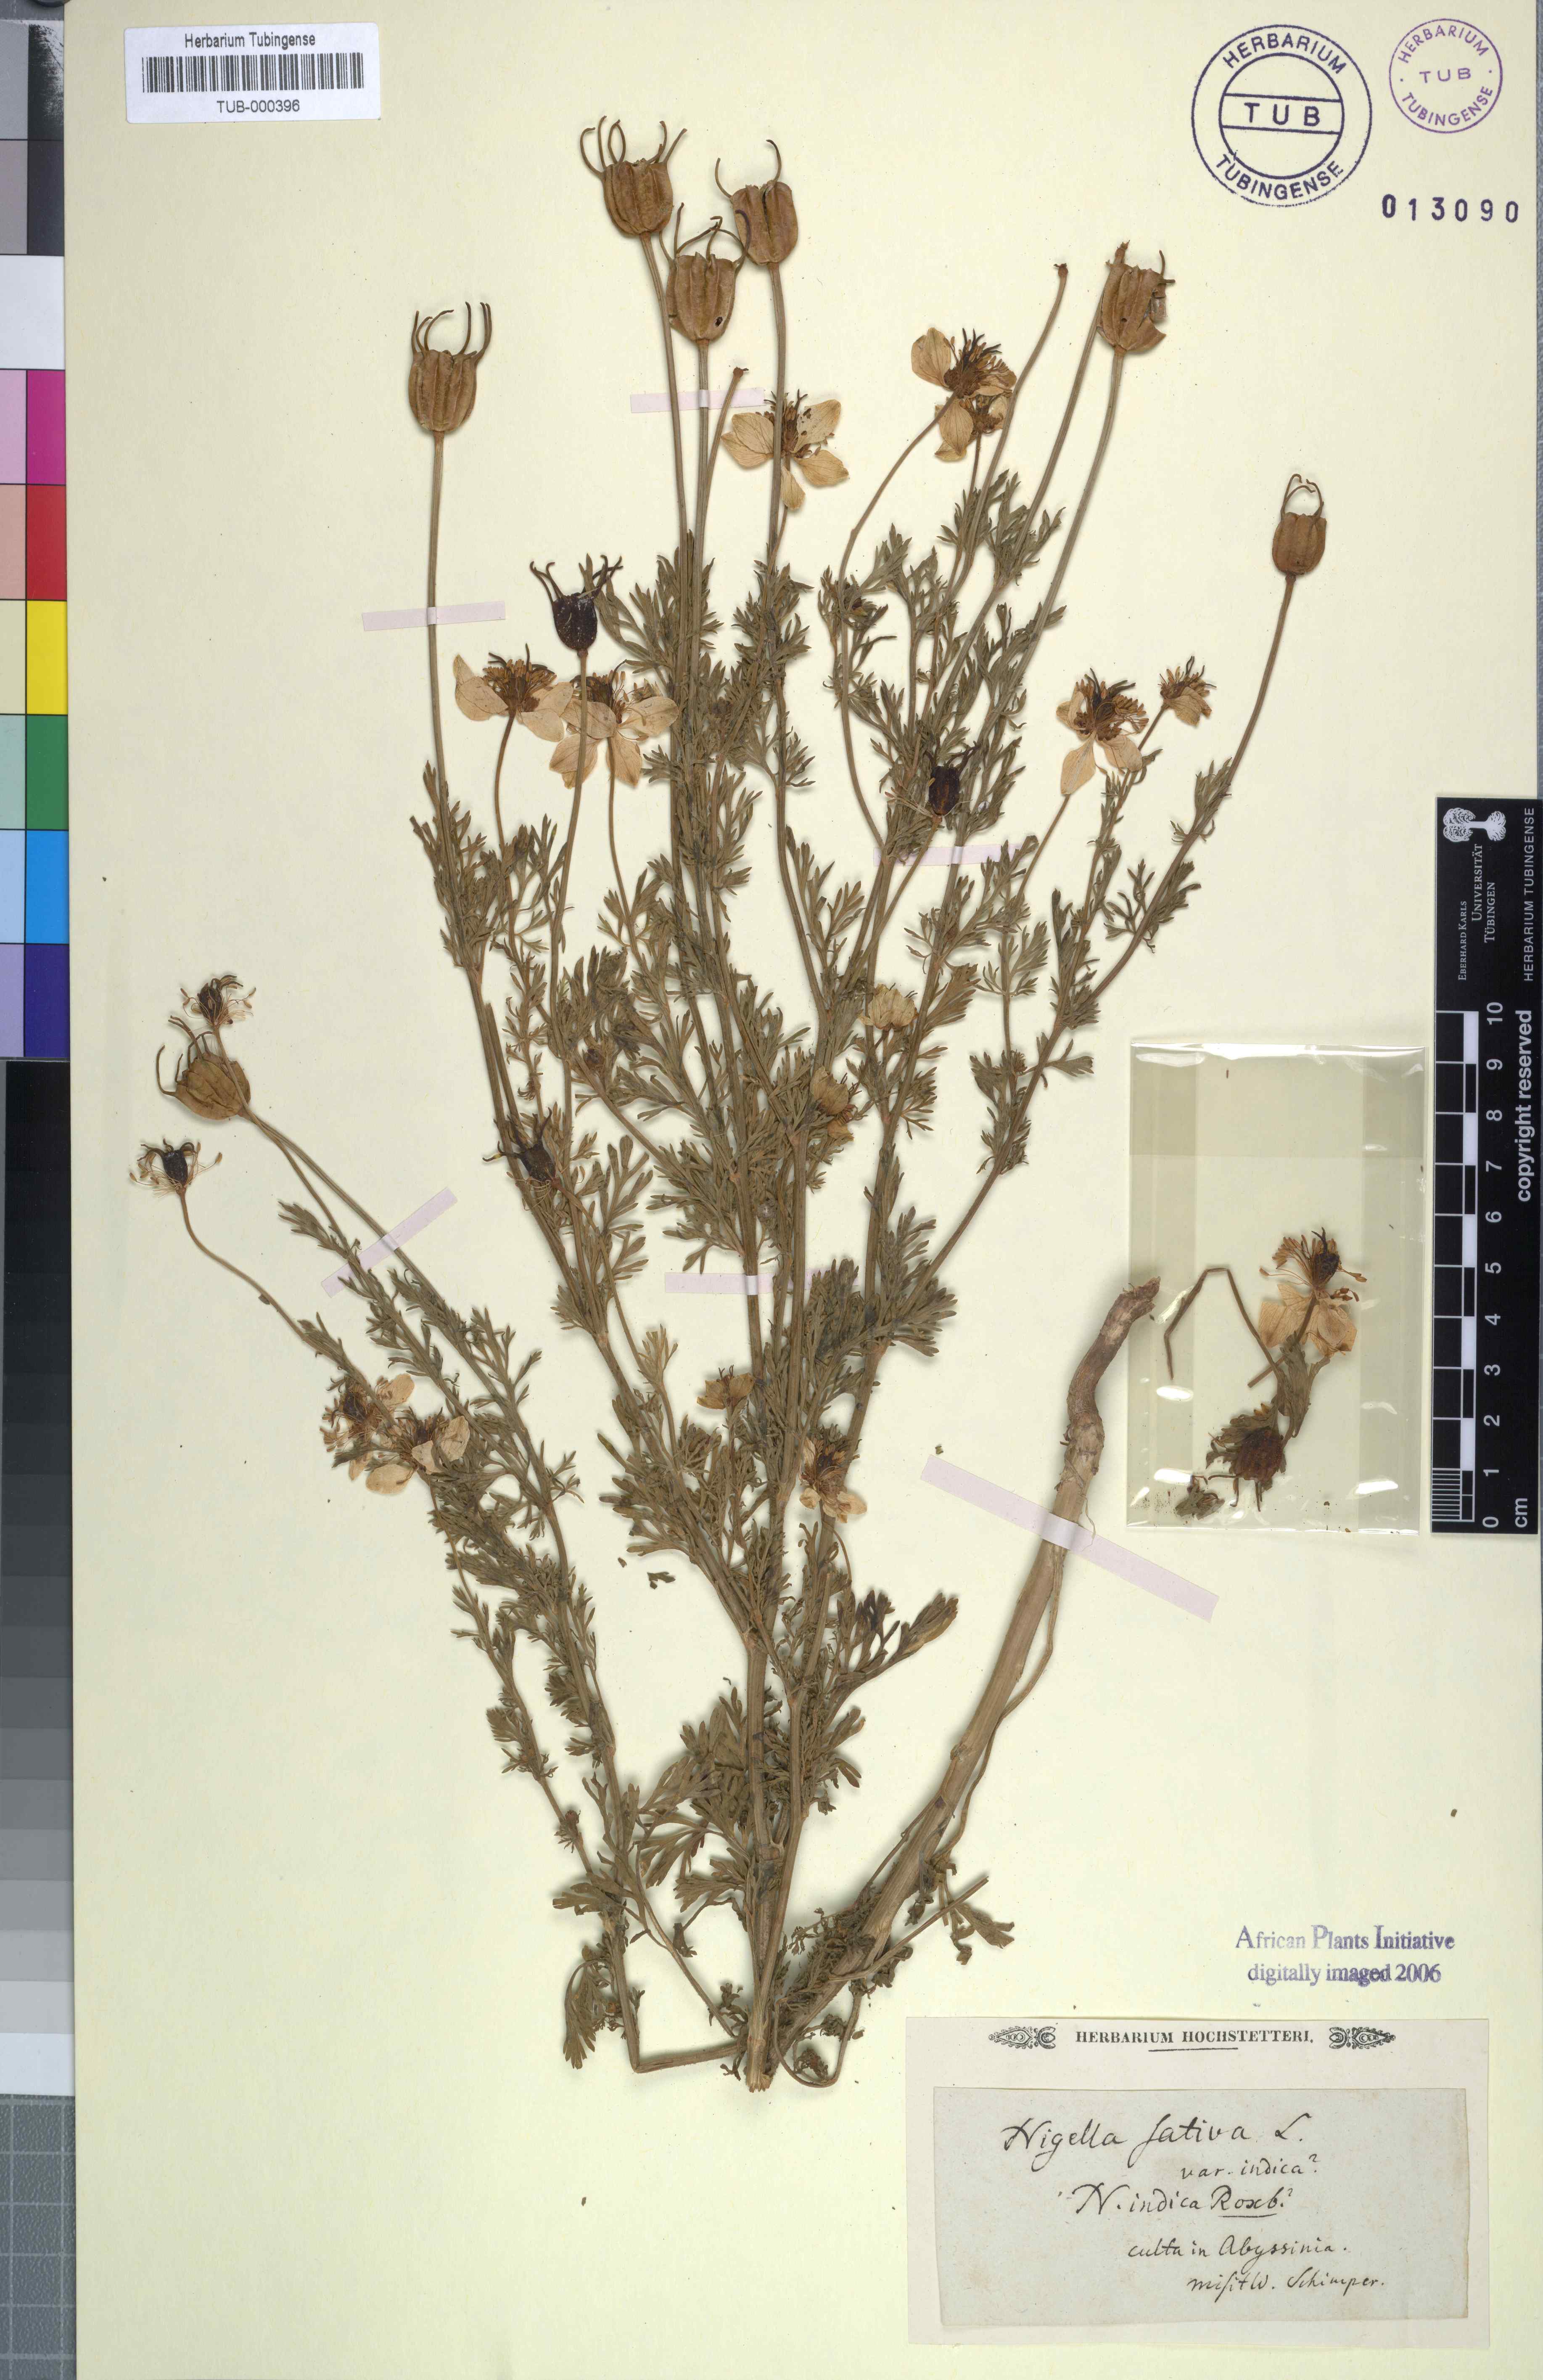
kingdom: Plantae
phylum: Tracheophyta
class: Magnoliopsida
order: Ranunculales
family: Ranunculaceae
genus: Nigella
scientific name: Nigella sativa
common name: Black-cumin
